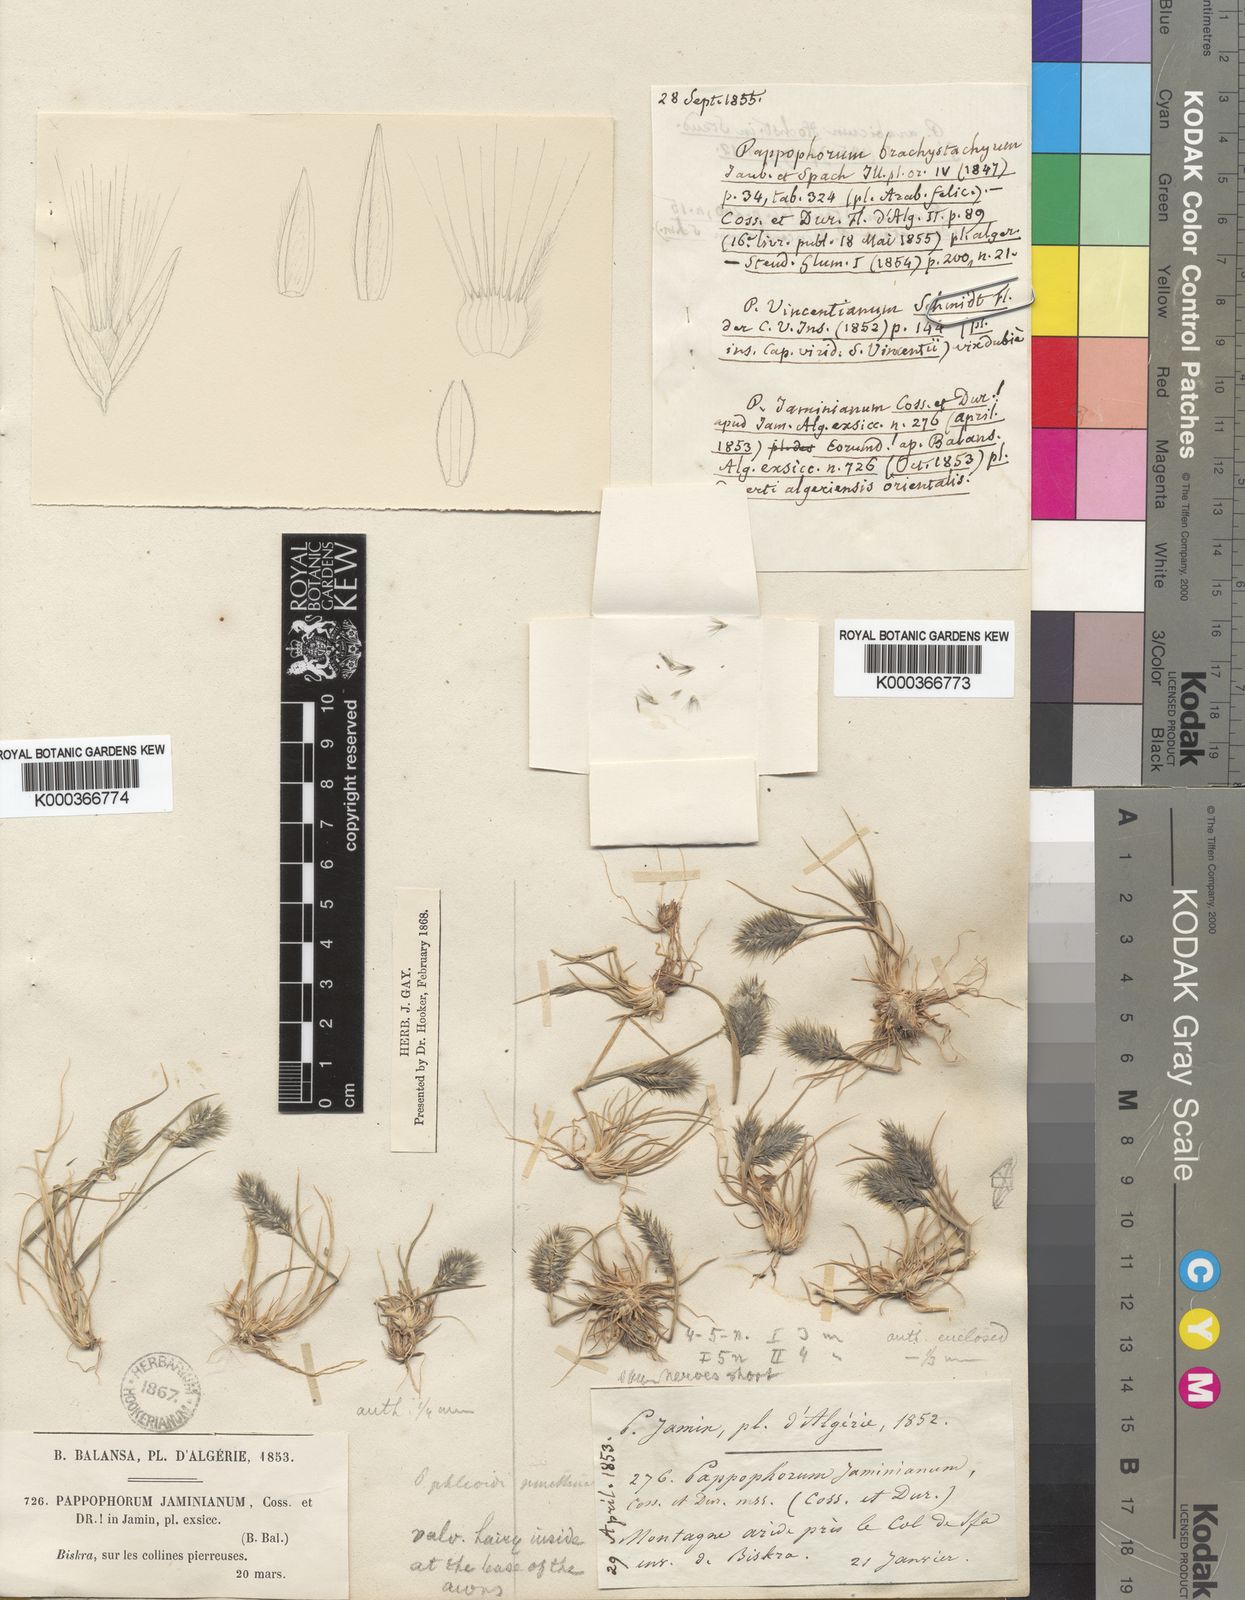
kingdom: Plantae
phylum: Tracheophyta
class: Liliopsida
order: Poales
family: Poaceae
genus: Enneapogon
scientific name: Enneapogon desvauxii
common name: Feather pappus grass
